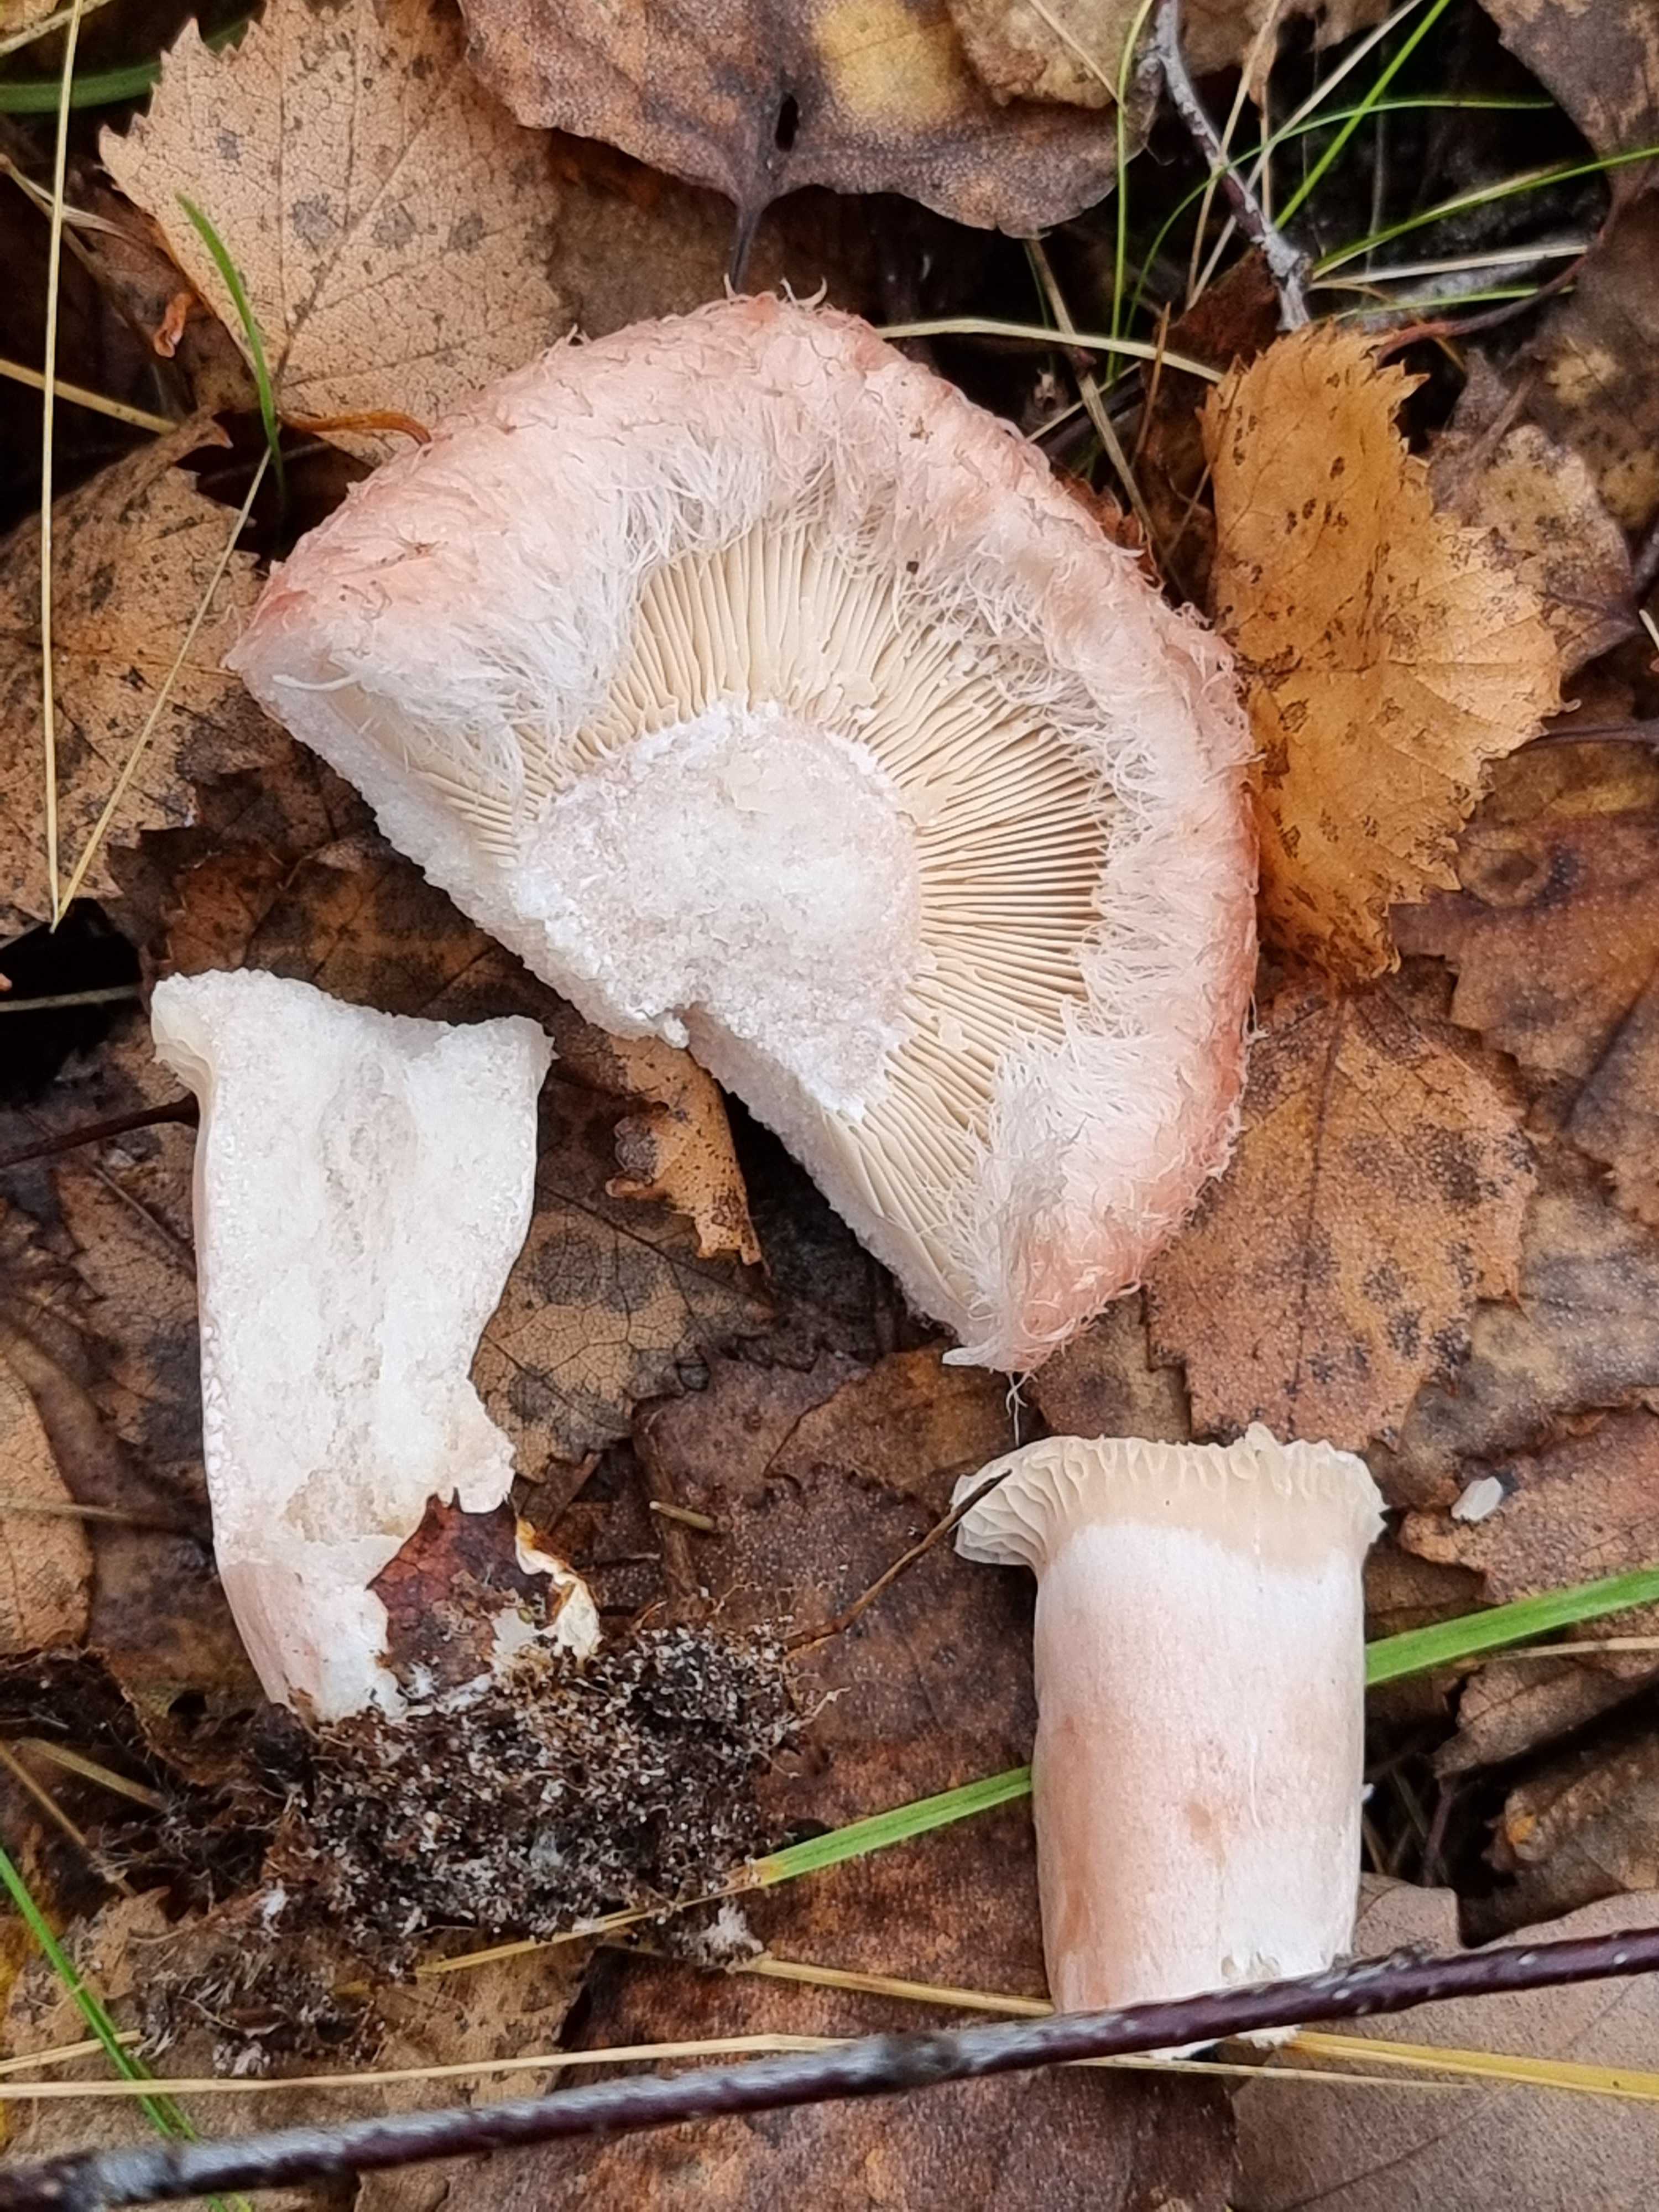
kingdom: Fungi
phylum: Basidiomycota
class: Agaricomycetes
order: Russulales
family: Russulaceae
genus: Lactarius
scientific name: Lactarius torminosus
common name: skægget mælkehat
